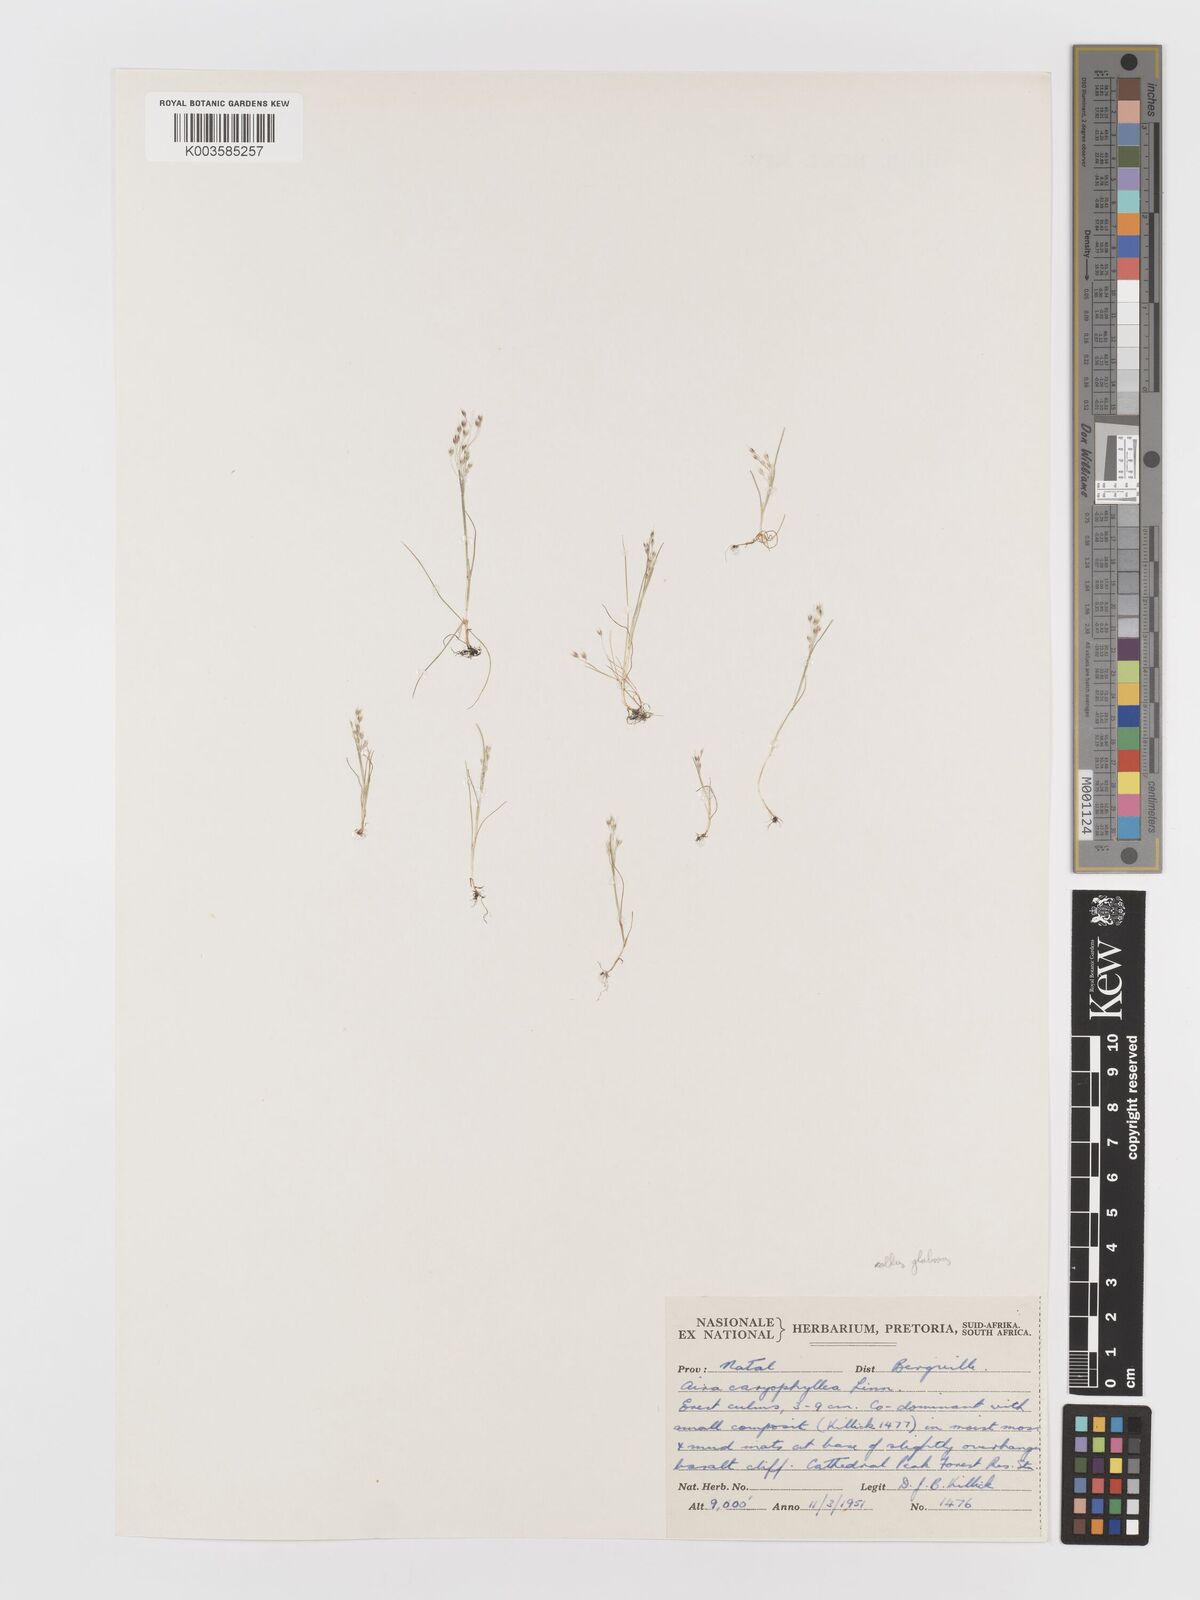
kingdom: Plantae
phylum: Tracheophyta
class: Liliopsida
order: Poales
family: Poaceae
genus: Aira
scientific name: Aira caryophyllea
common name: Silver hairgrass
